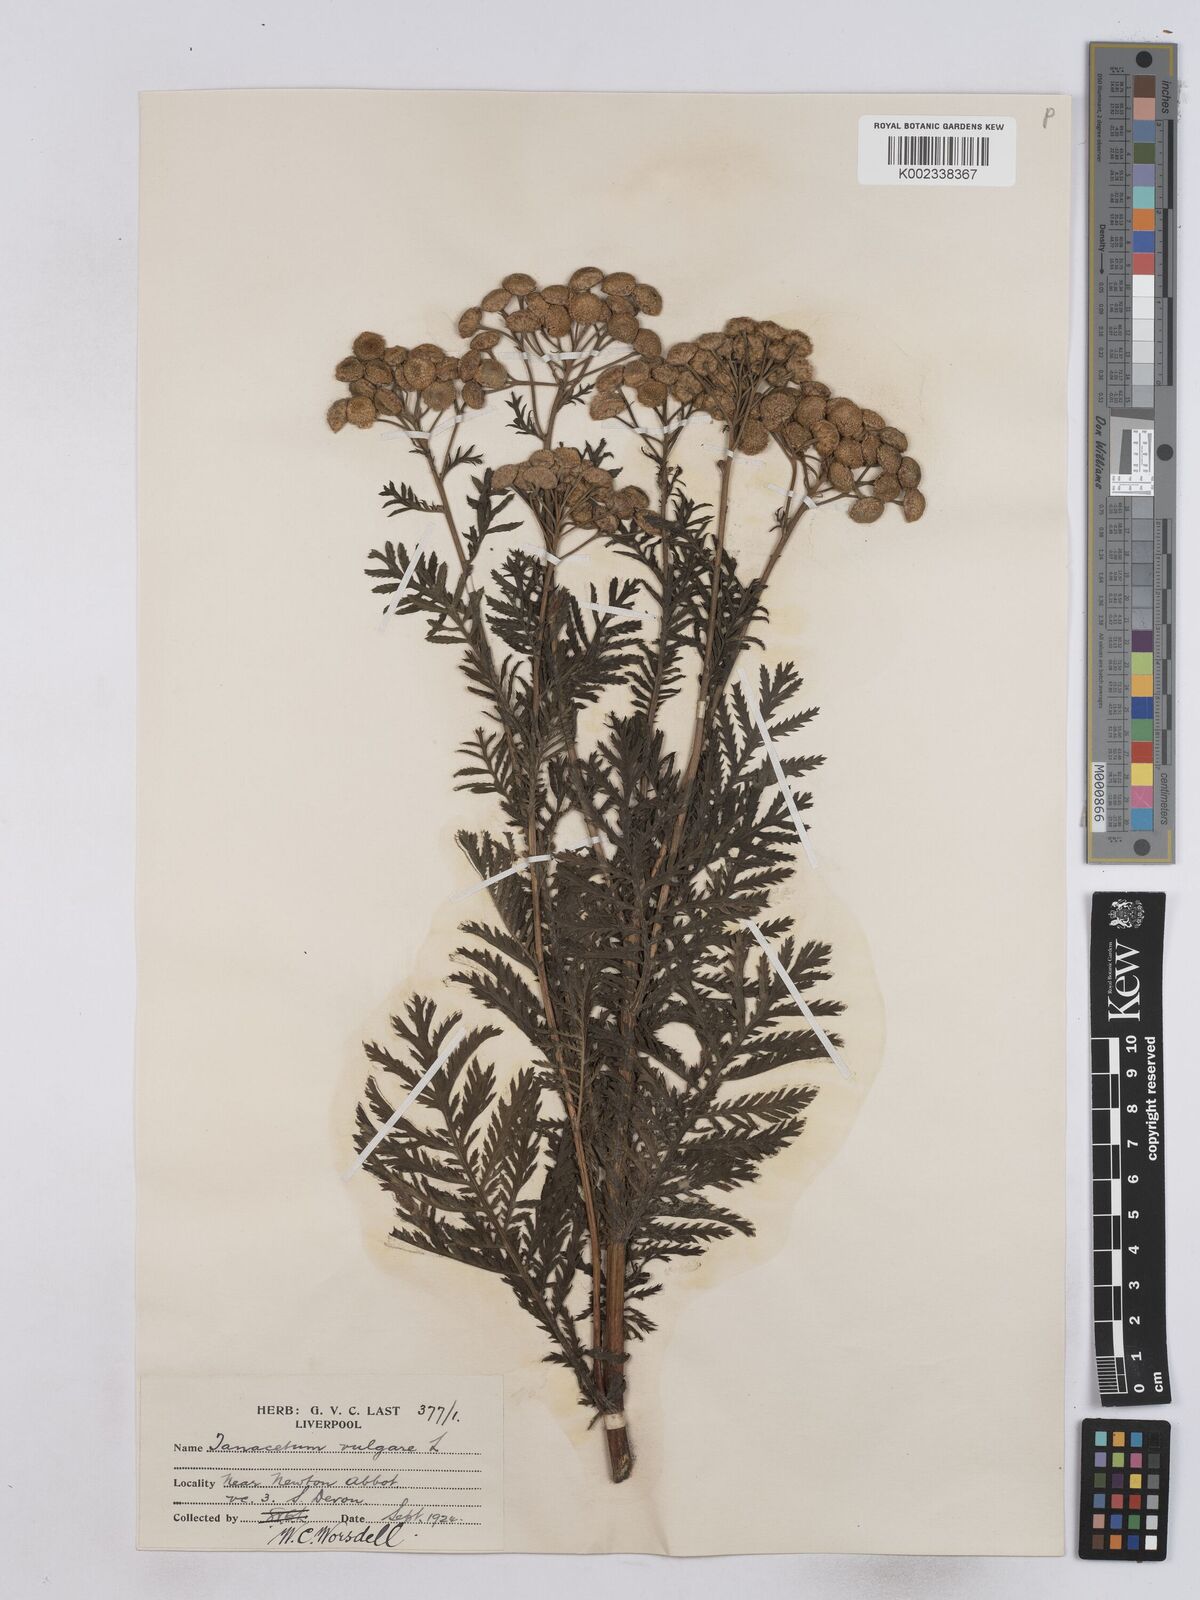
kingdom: Plantae
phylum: Tracheophyta
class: Magnoliopsida
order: Asterales
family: Asteraceae
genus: Tanacetum
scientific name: Tanacetum vulgare
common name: Common tansy
